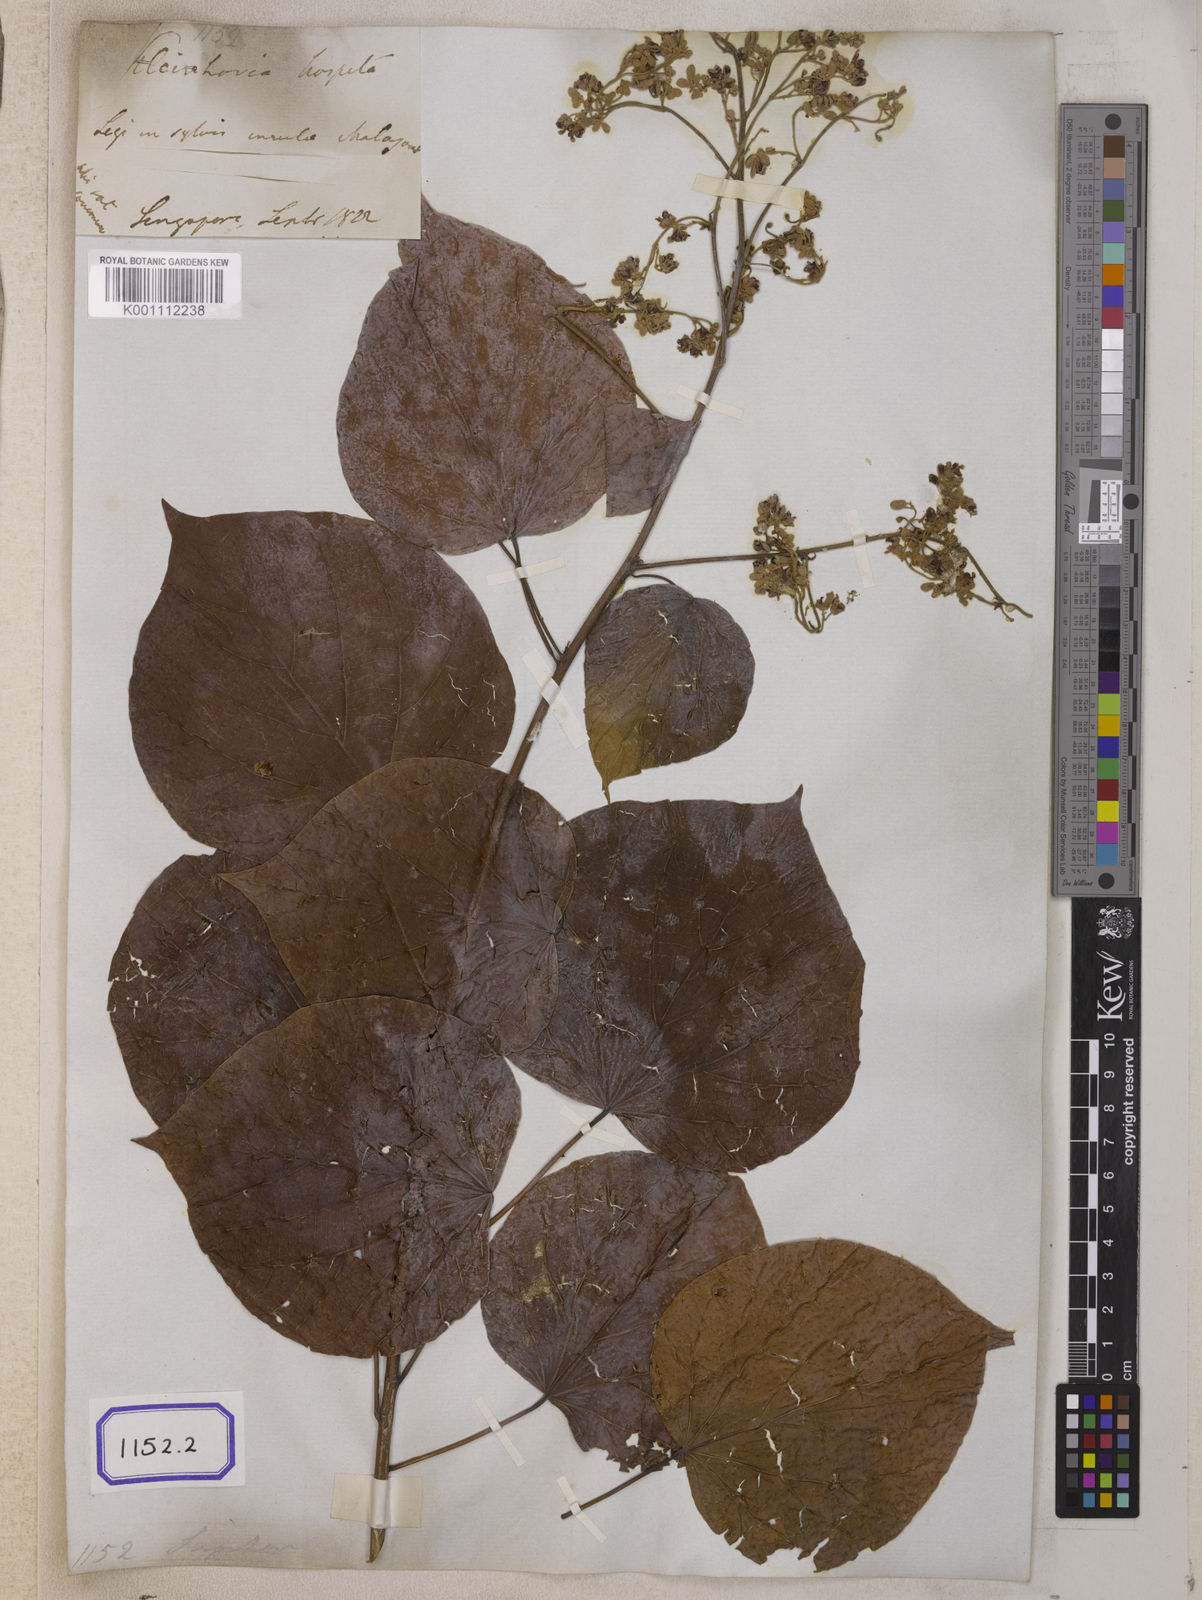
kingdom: Plantae
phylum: Tracheophyta
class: Magnoliopsida
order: Malvales
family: Malvaceae
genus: Kleinhovia
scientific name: Kleinhovia hospita
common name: Guest-tree
